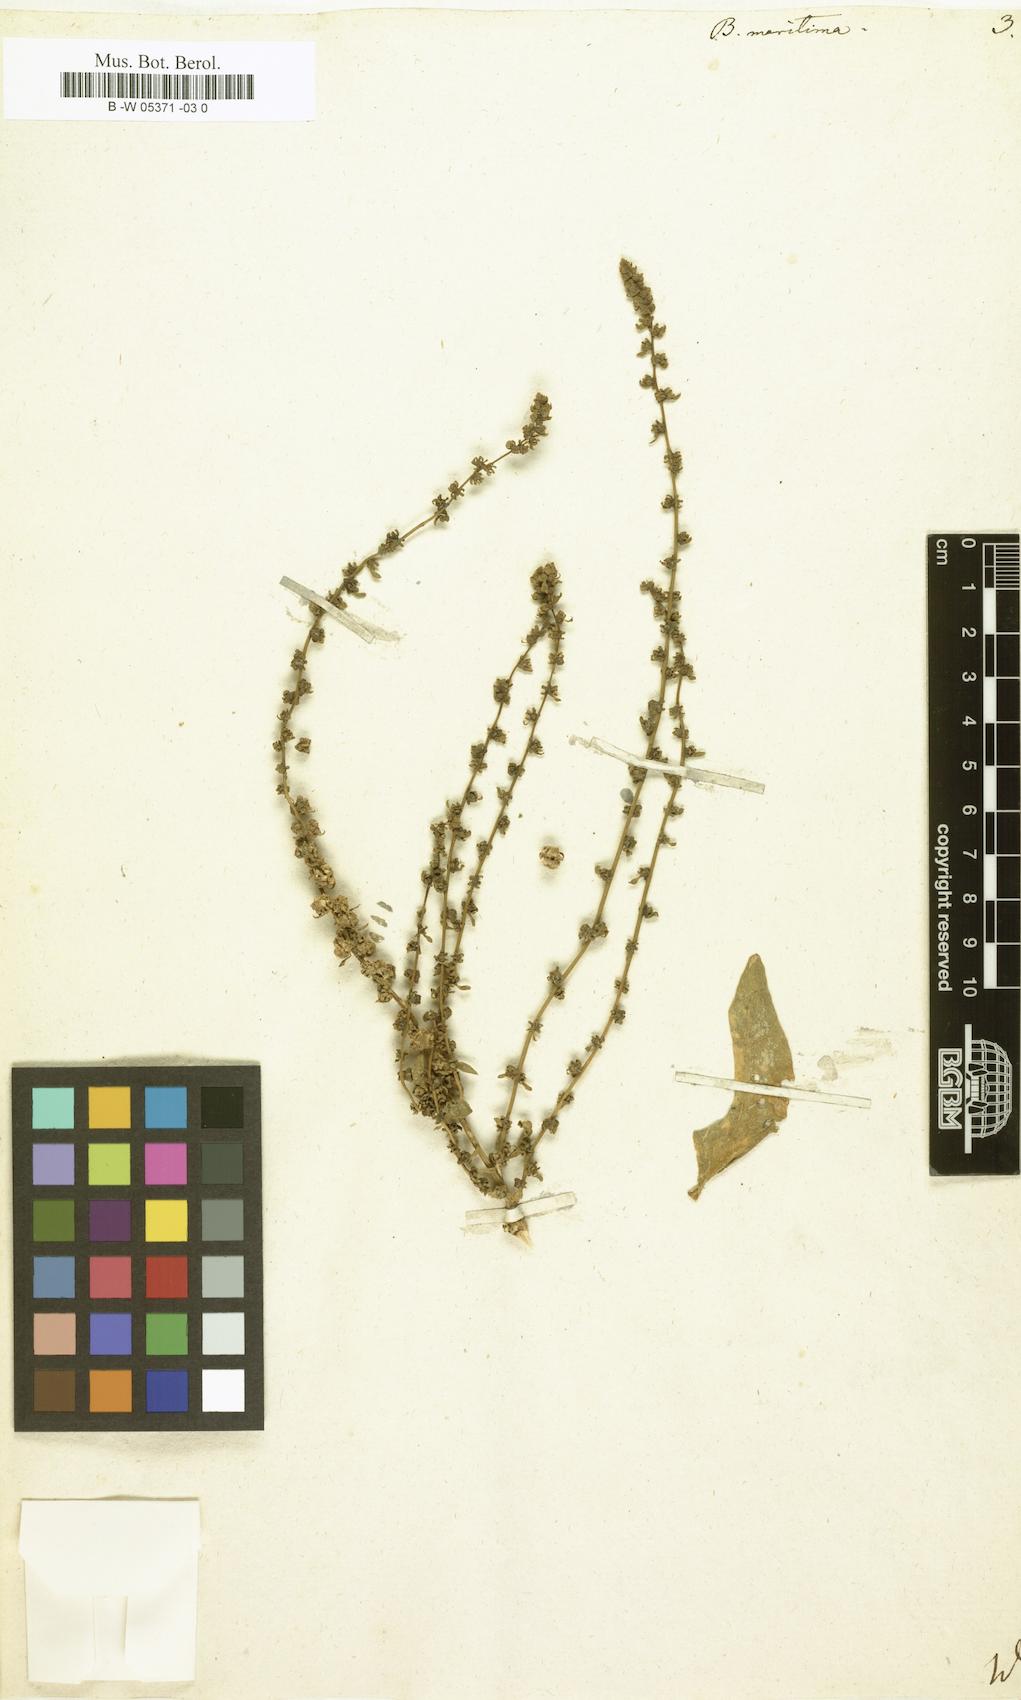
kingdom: Plantae
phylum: Tracheophyta
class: Magnoliopsida
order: Caryophyllales
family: Amaranthaceae
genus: Beta
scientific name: Beta maritima
